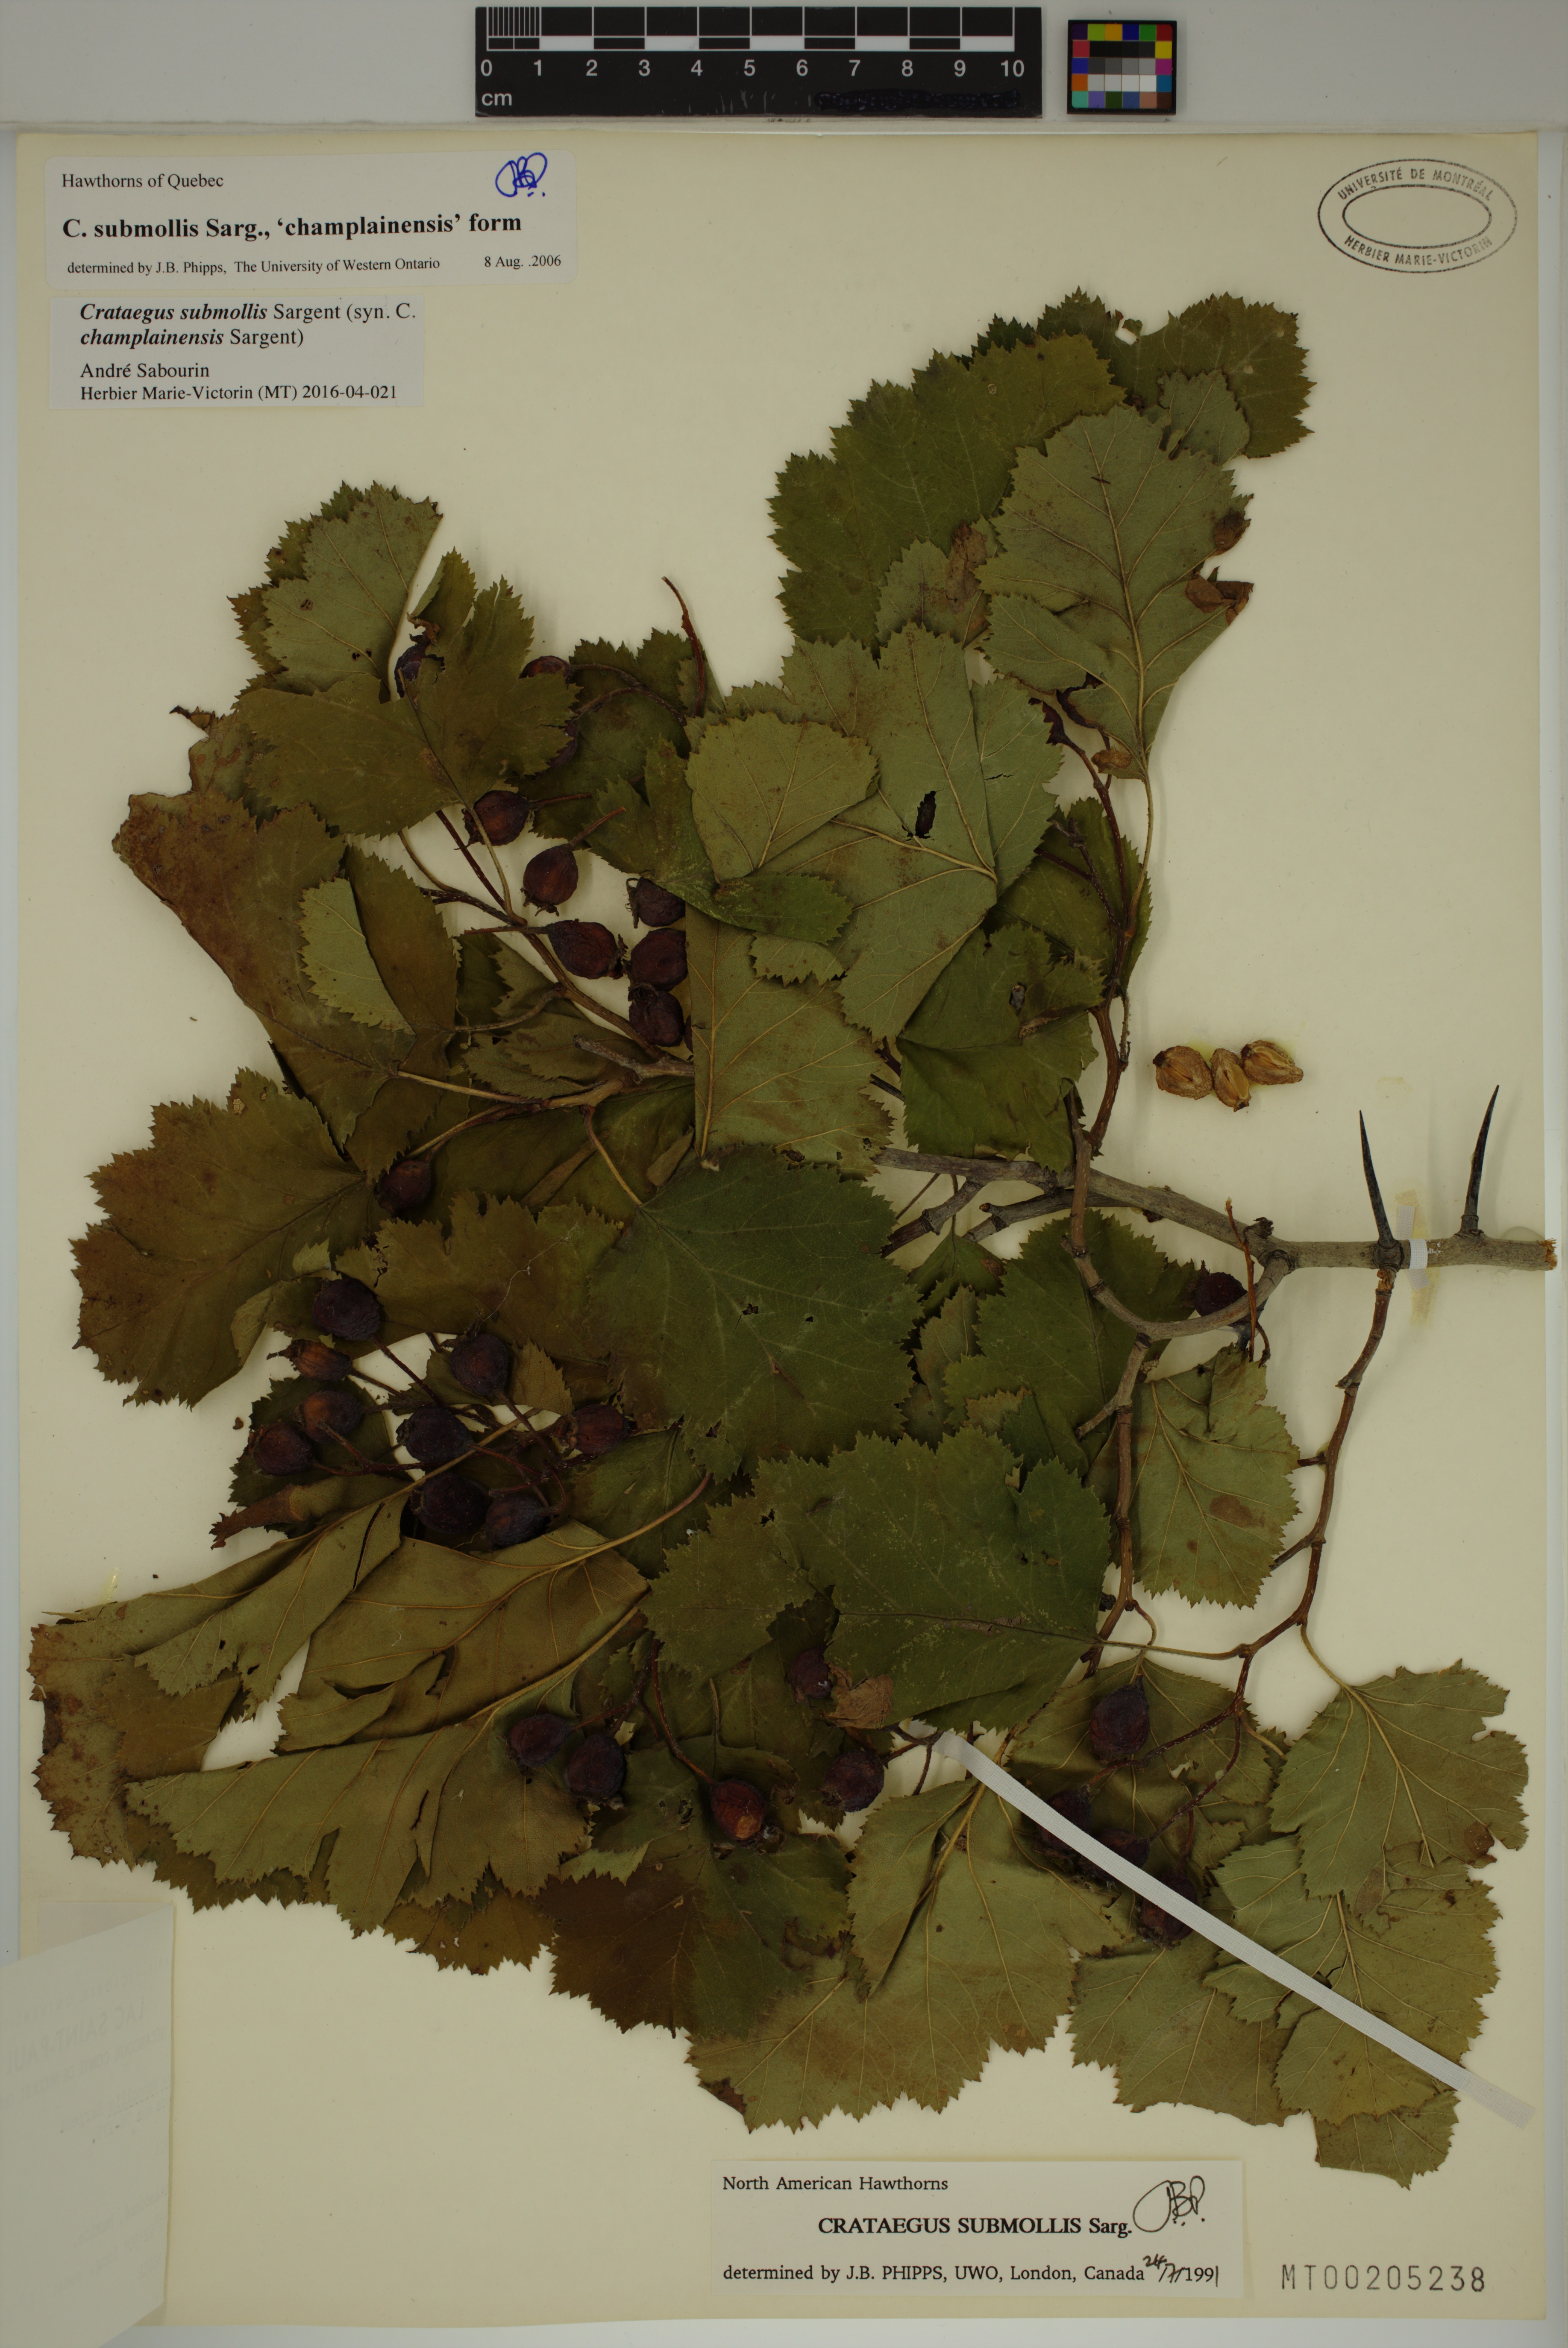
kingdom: Plantae
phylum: Tracheophyta
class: Magnoliopsida
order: Rosales
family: Rosaceae
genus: Crataegus
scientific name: Crataegus submollis
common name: Hairy cockspurthorn
